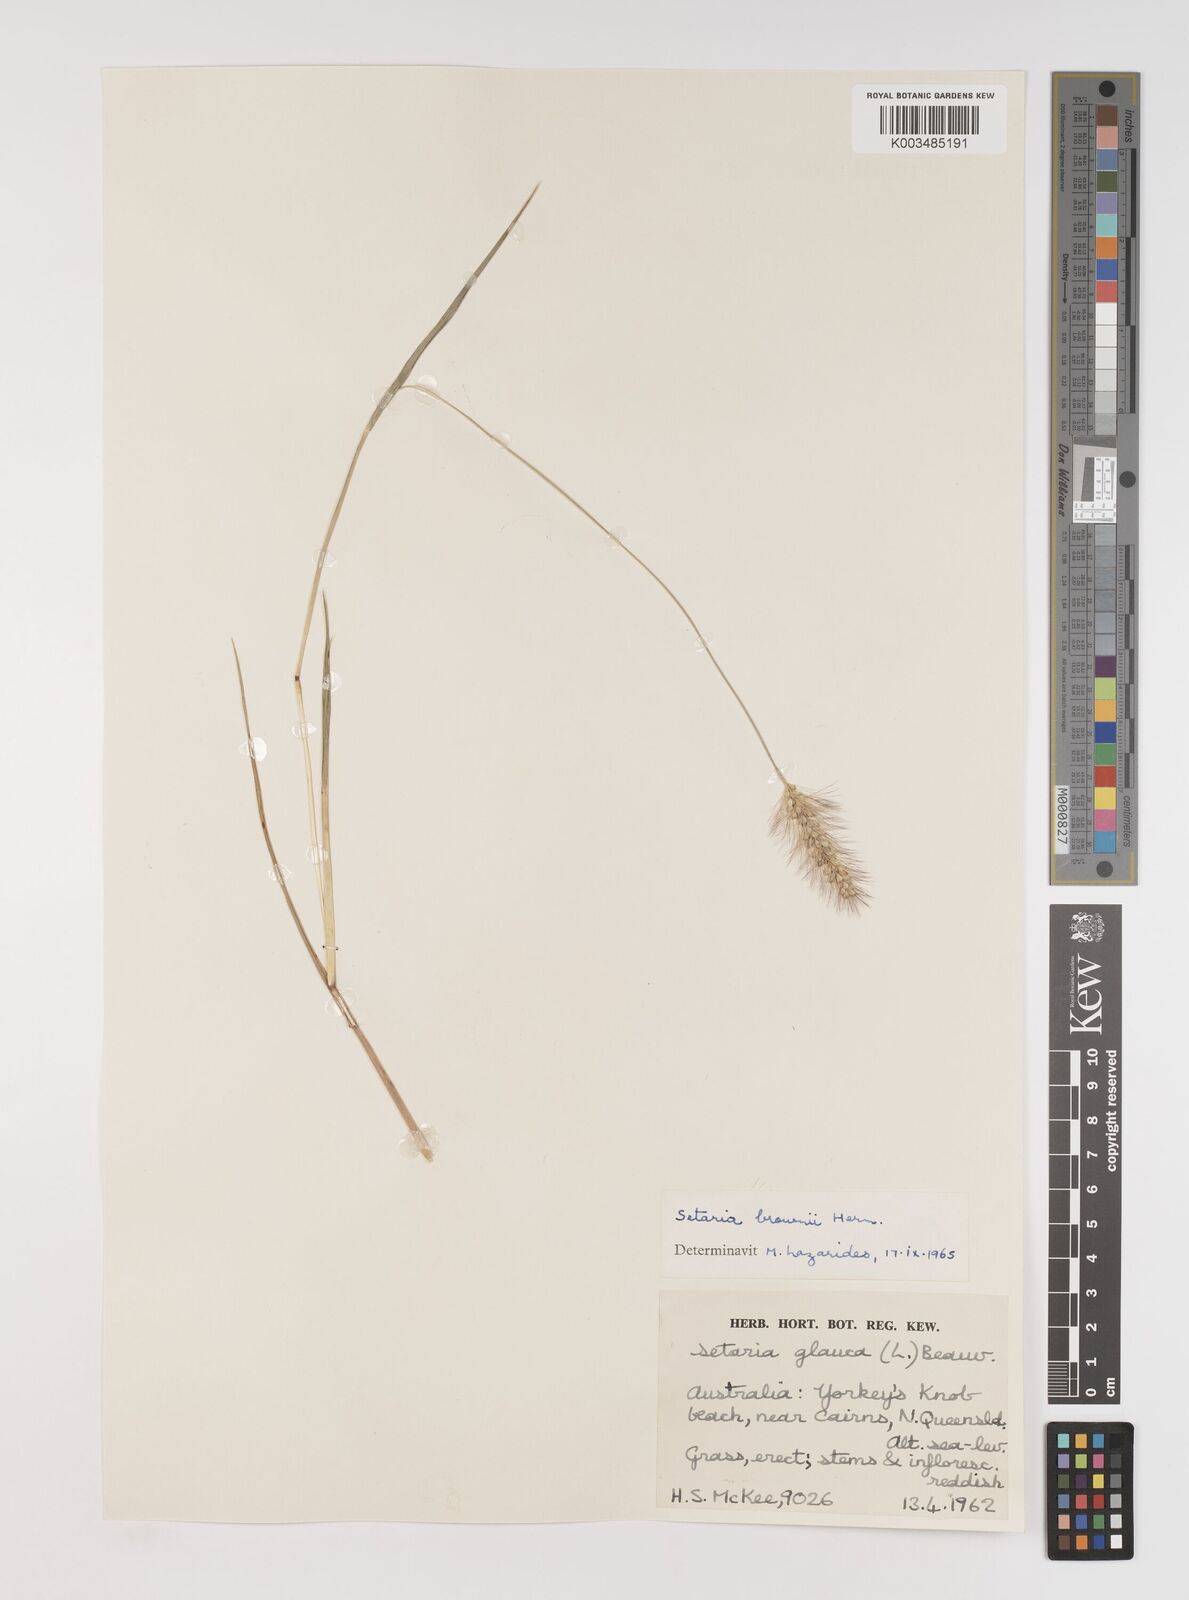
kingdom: Plantae
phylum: Tracheophyta
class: Liliopsida
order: Poales
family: Poaceae
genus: Setaria
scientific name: Setaria apiculata
